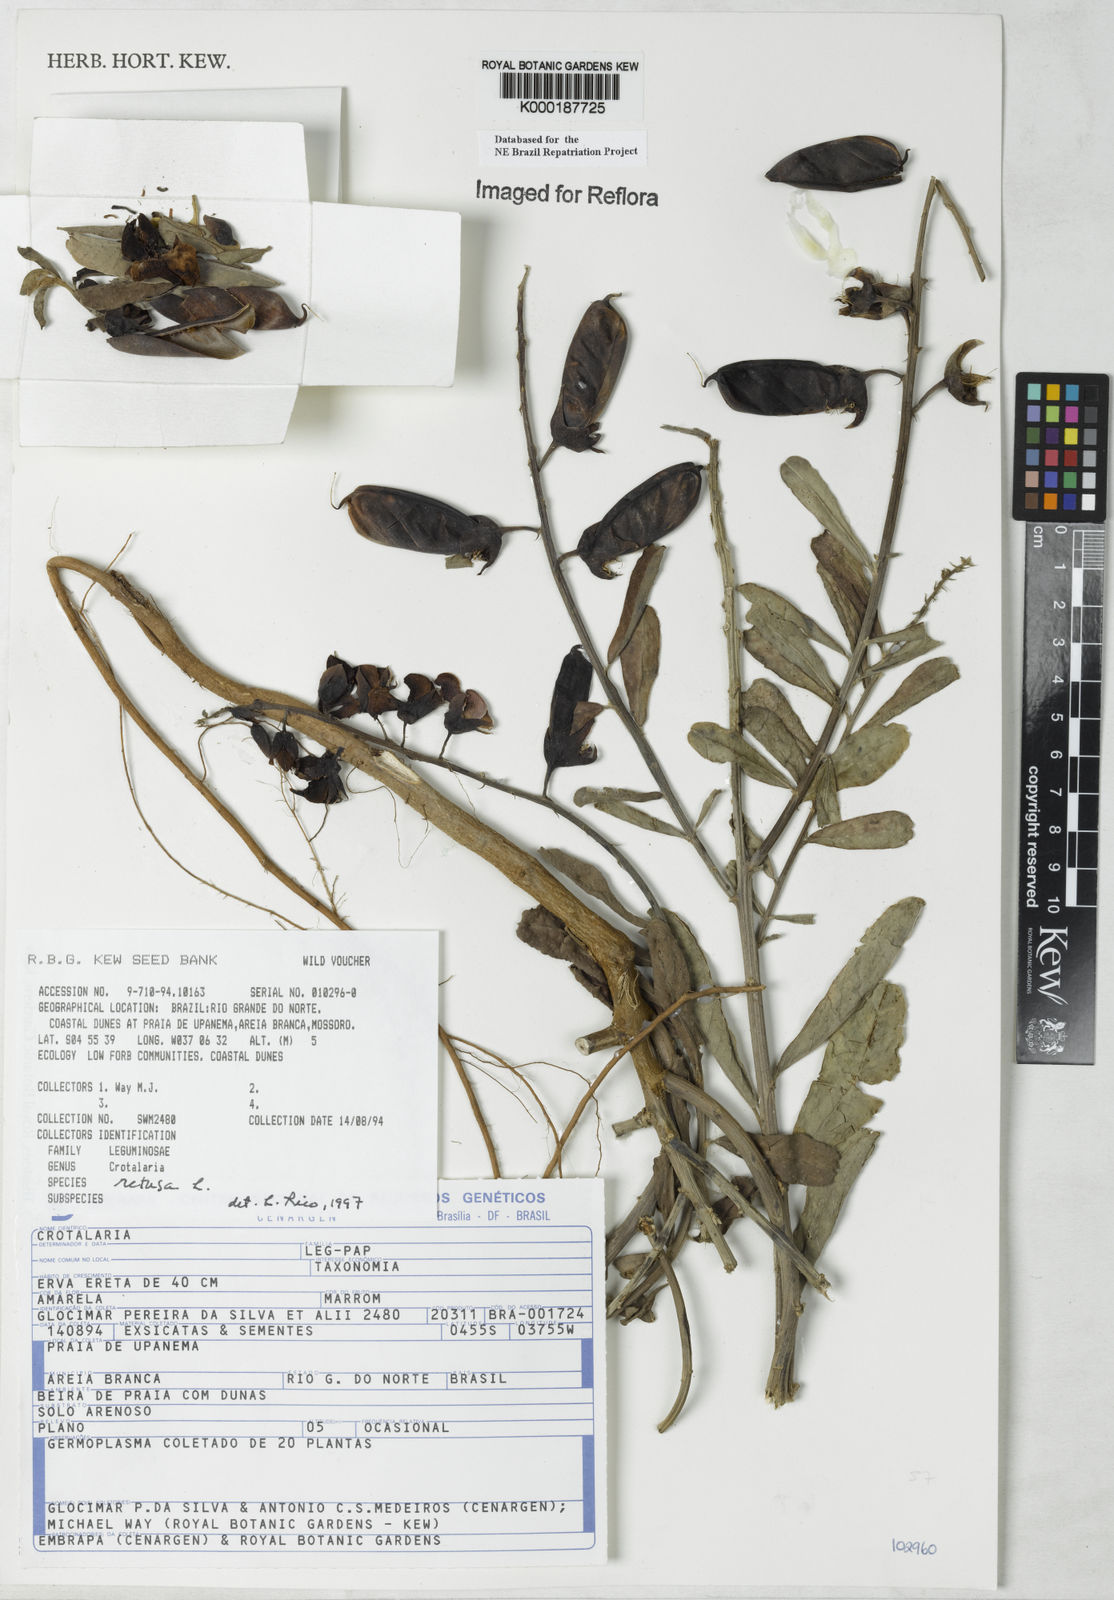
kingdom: Plantae
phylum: Tracheophyta
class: Magnoliopsida
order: Fabales
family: Fabaceae
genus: Crotalaria
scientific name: Crotalaria retusa
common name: Rattleweed
